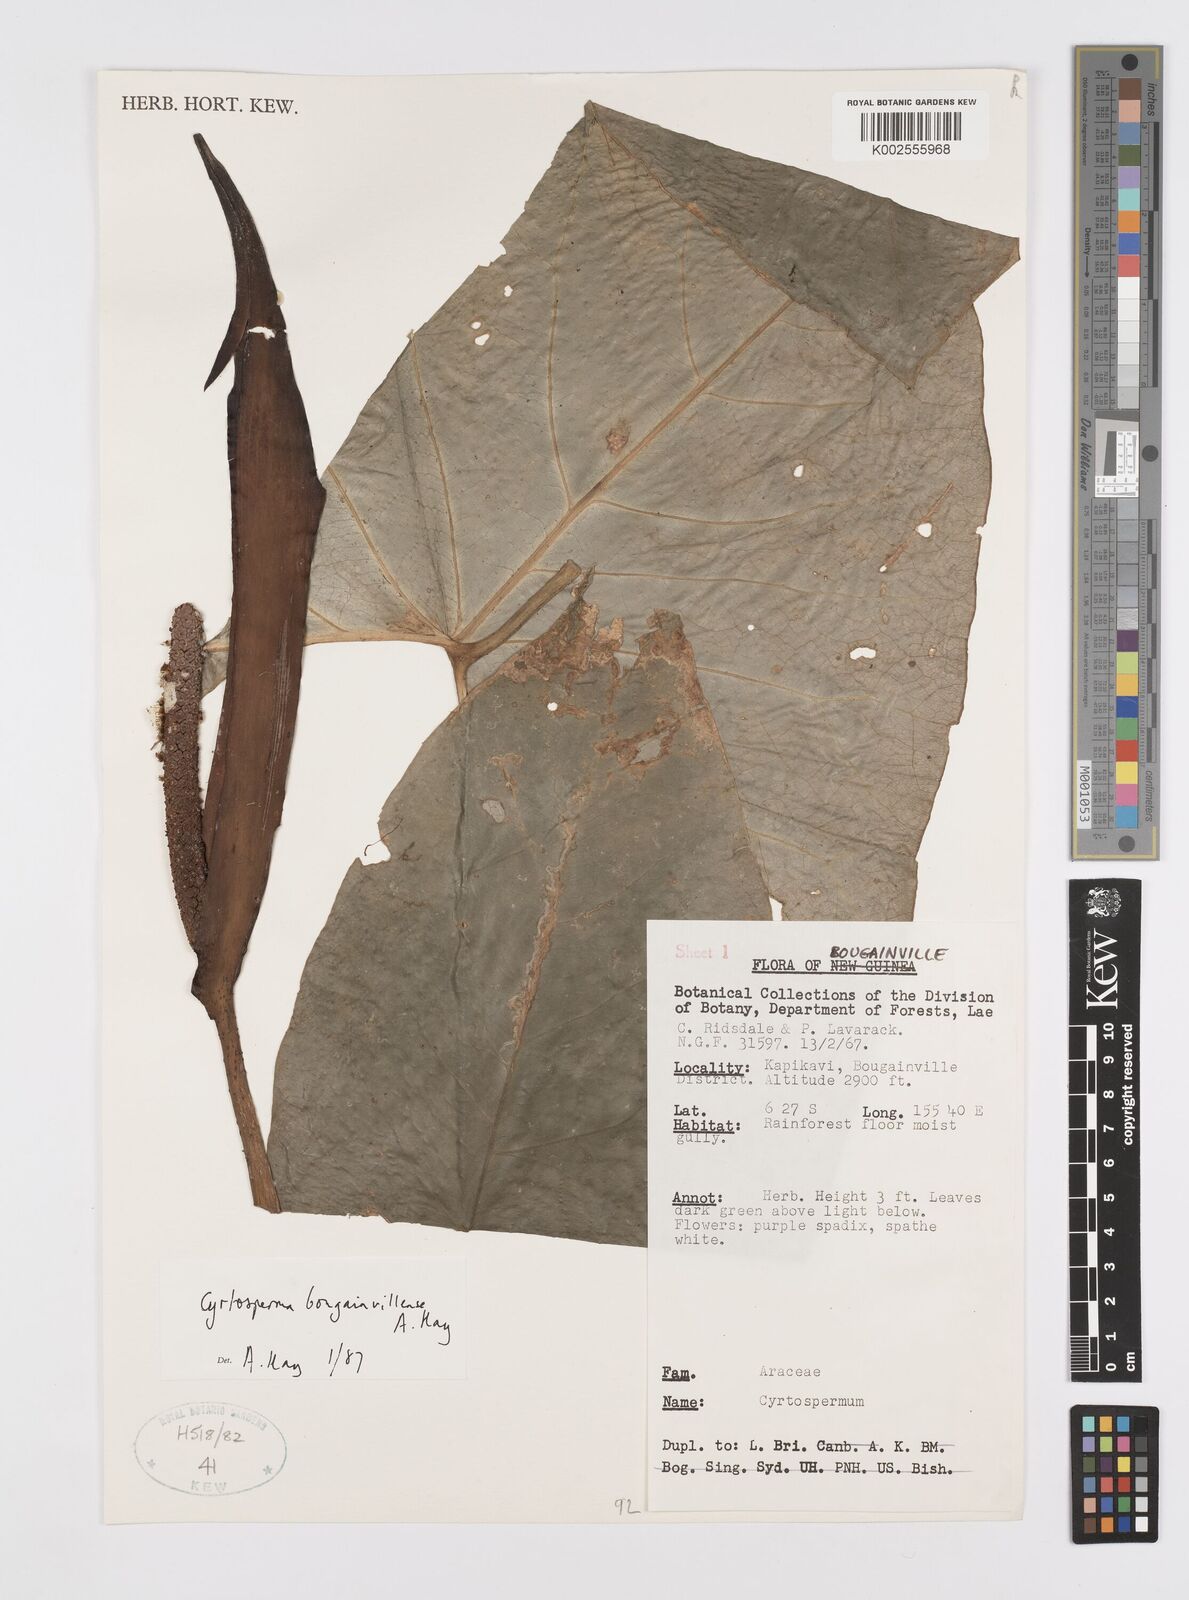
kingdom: Plantae
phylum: Tracheophyta
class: Liliopsida
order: Alismatales
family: Araceae
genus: Cyrtosperma
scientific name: Cyrtosperma bougainvillense
